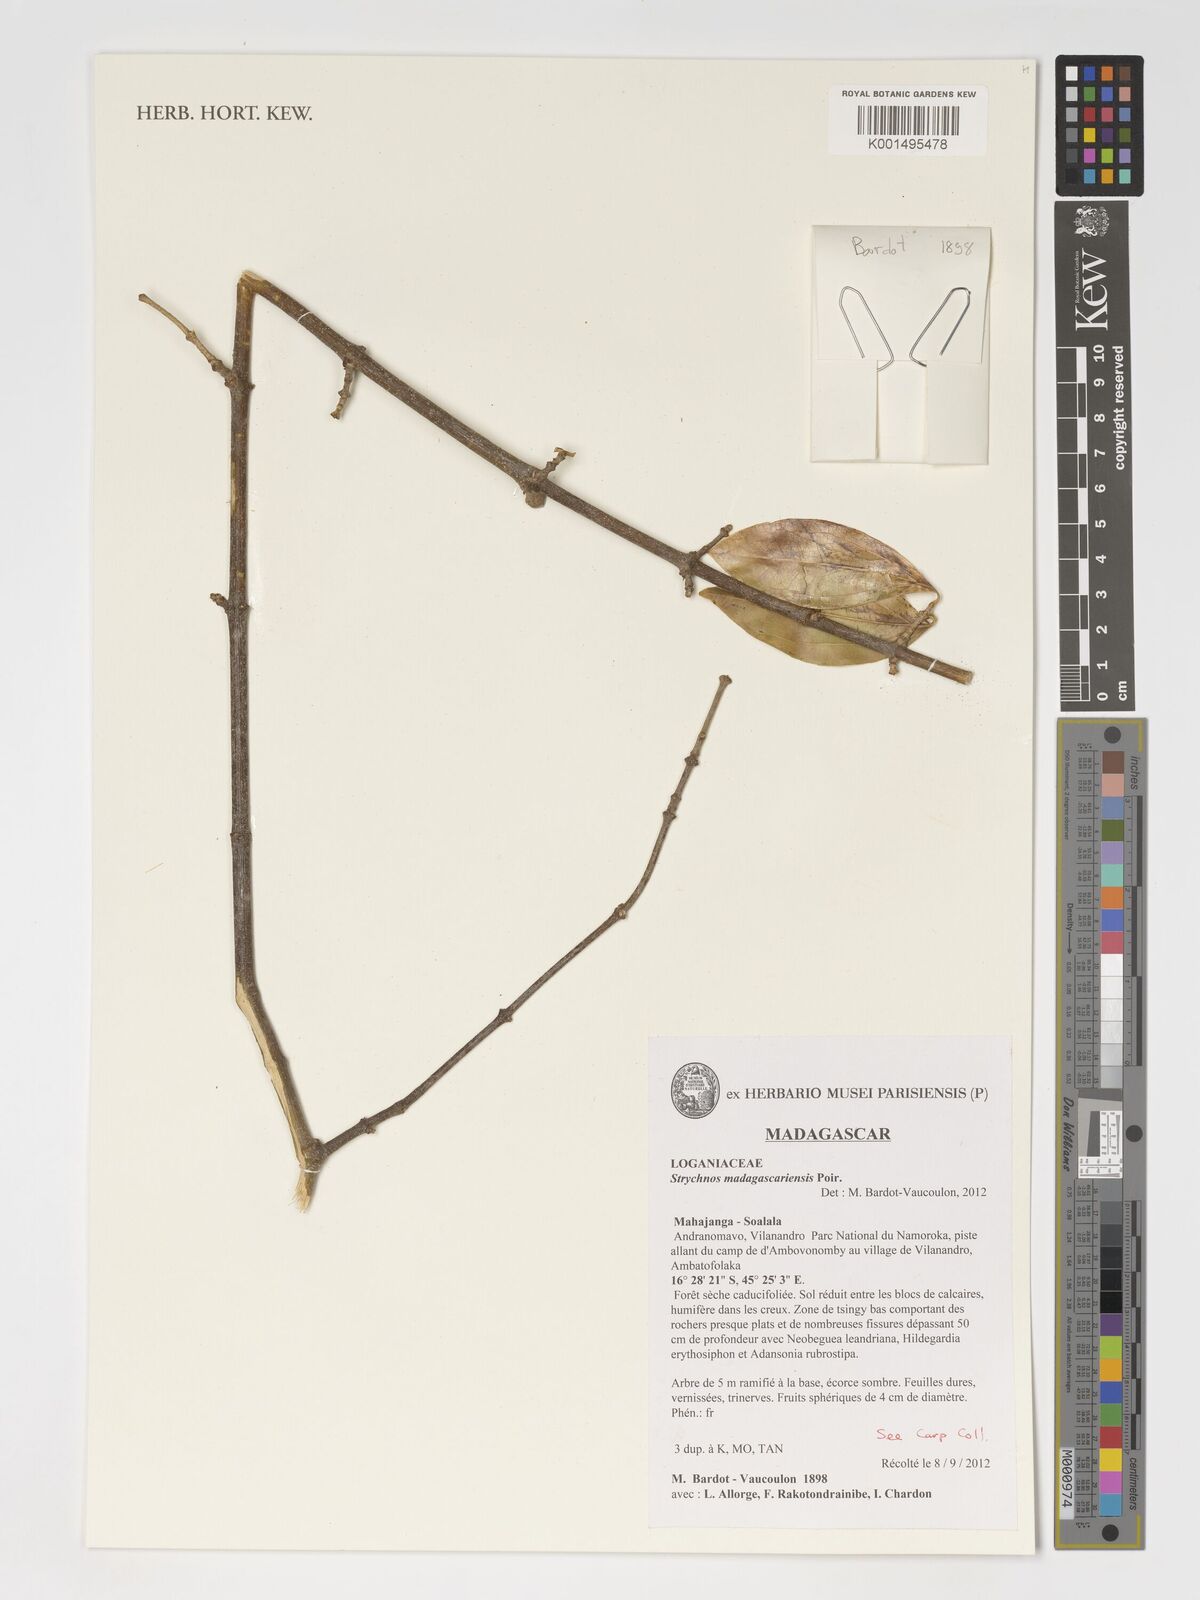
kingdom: Plantae
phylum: Tracheophyta
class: Magnoliopsida
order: Gentianales
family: Loganiaceae
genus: Strychnos
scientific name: Strychnos madagascariensis
